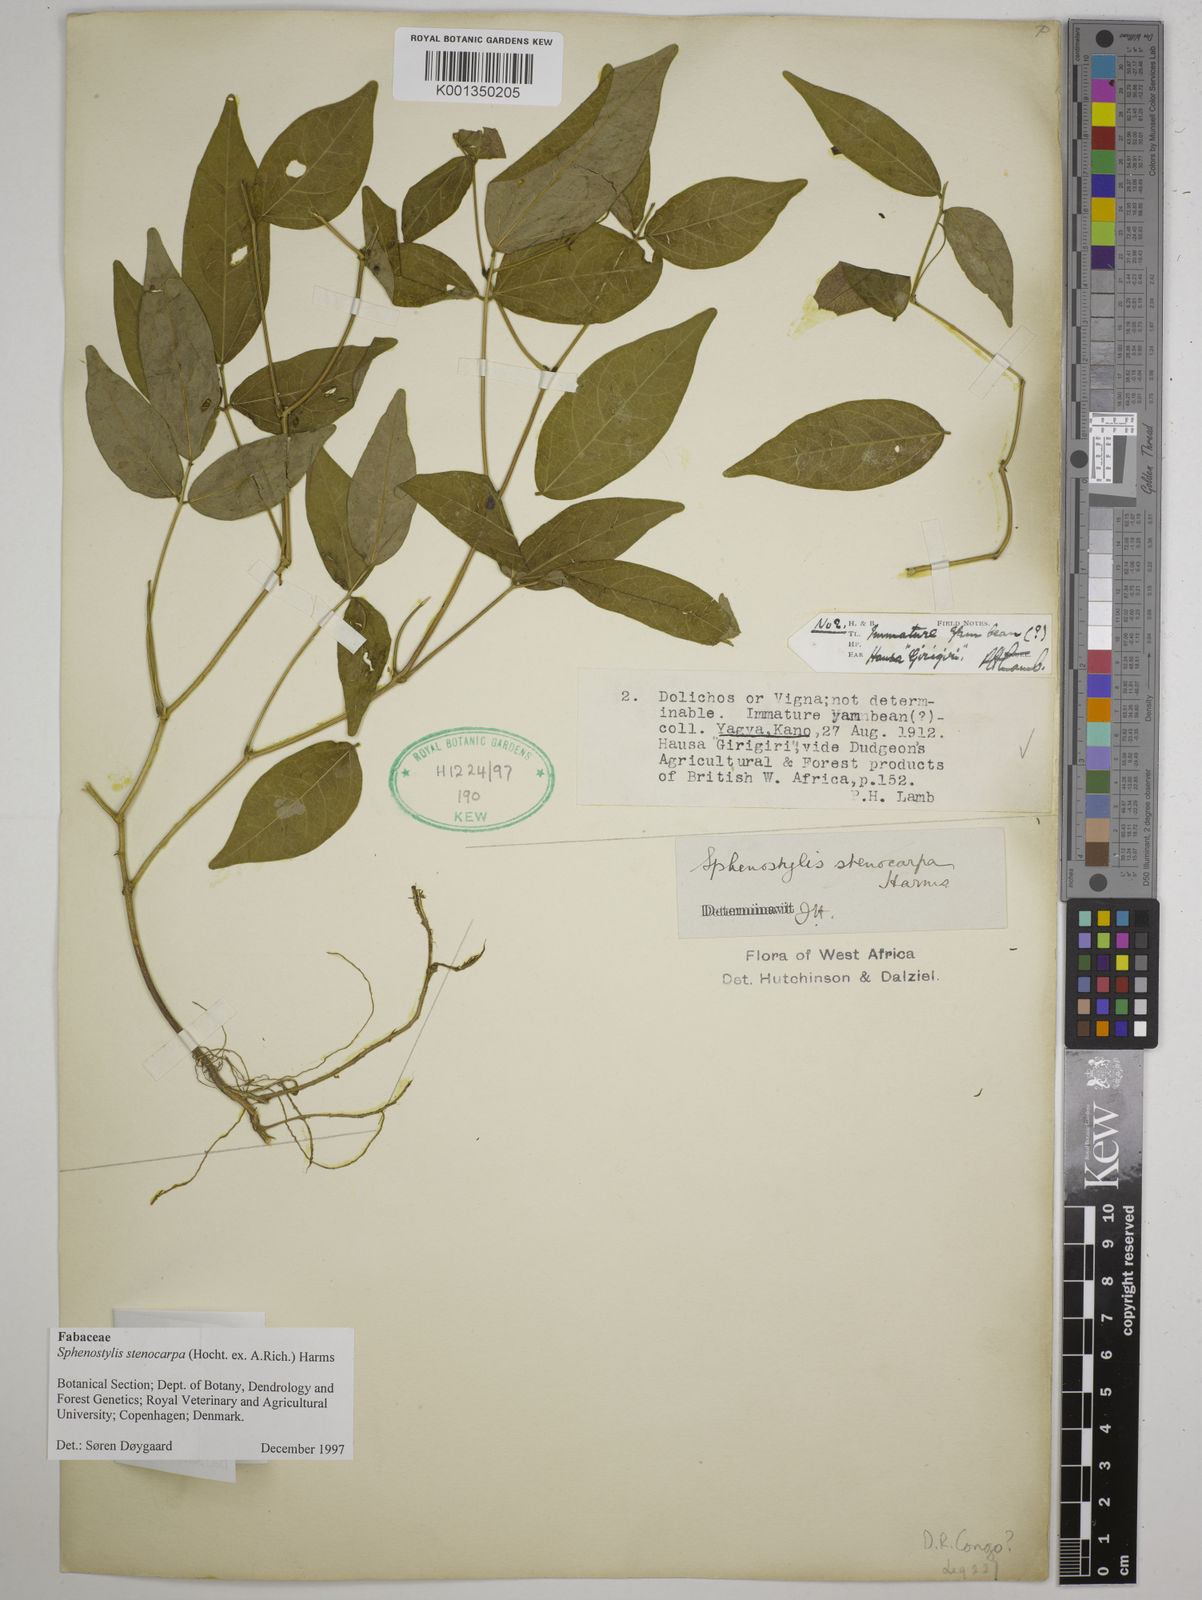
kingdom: Plantae
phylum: Tracheophyta
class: Magnoliopsida
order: Fabales
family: Fabaceae
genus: Sphenostylis
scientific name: Sphenostylis stenocarpa
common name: Yam-pea
